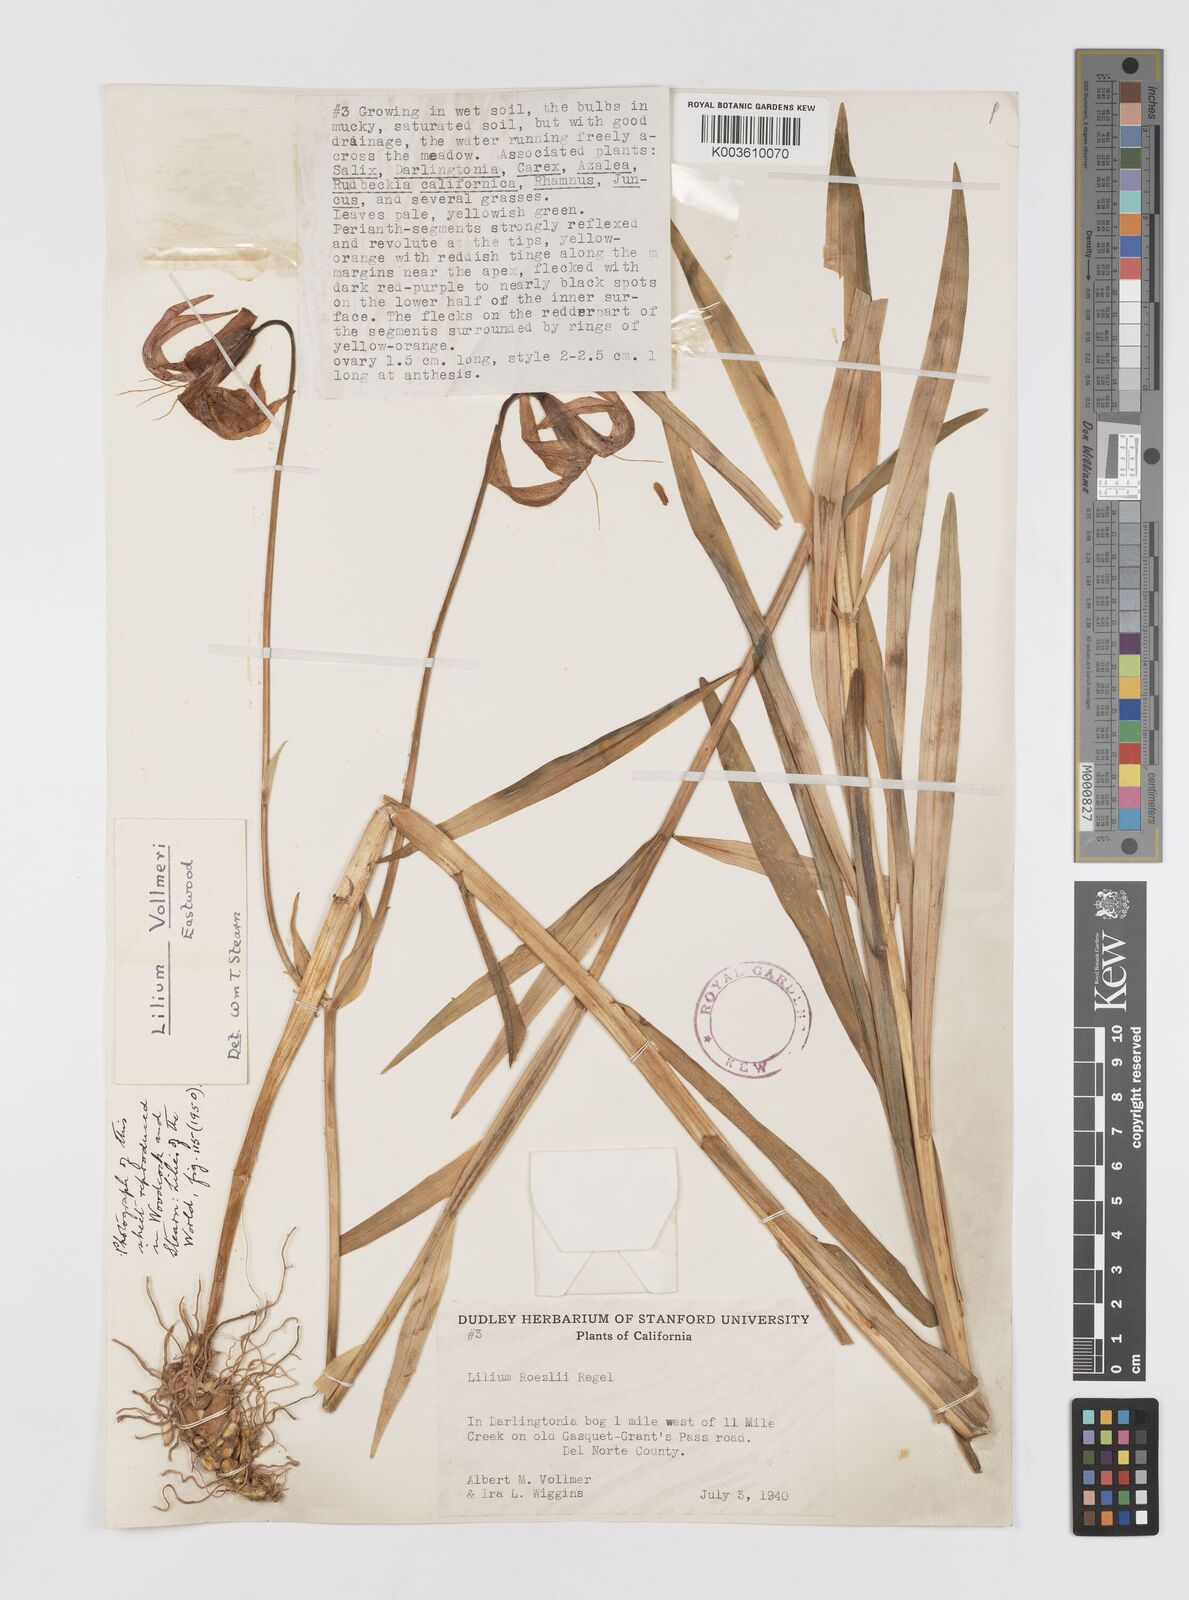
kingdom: Plantae
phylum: Tracheophyta
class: Liliopsida
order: Liliales
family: Liliaceae
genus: Lilium
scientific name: Lilium pardalinum
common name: Panther lily
